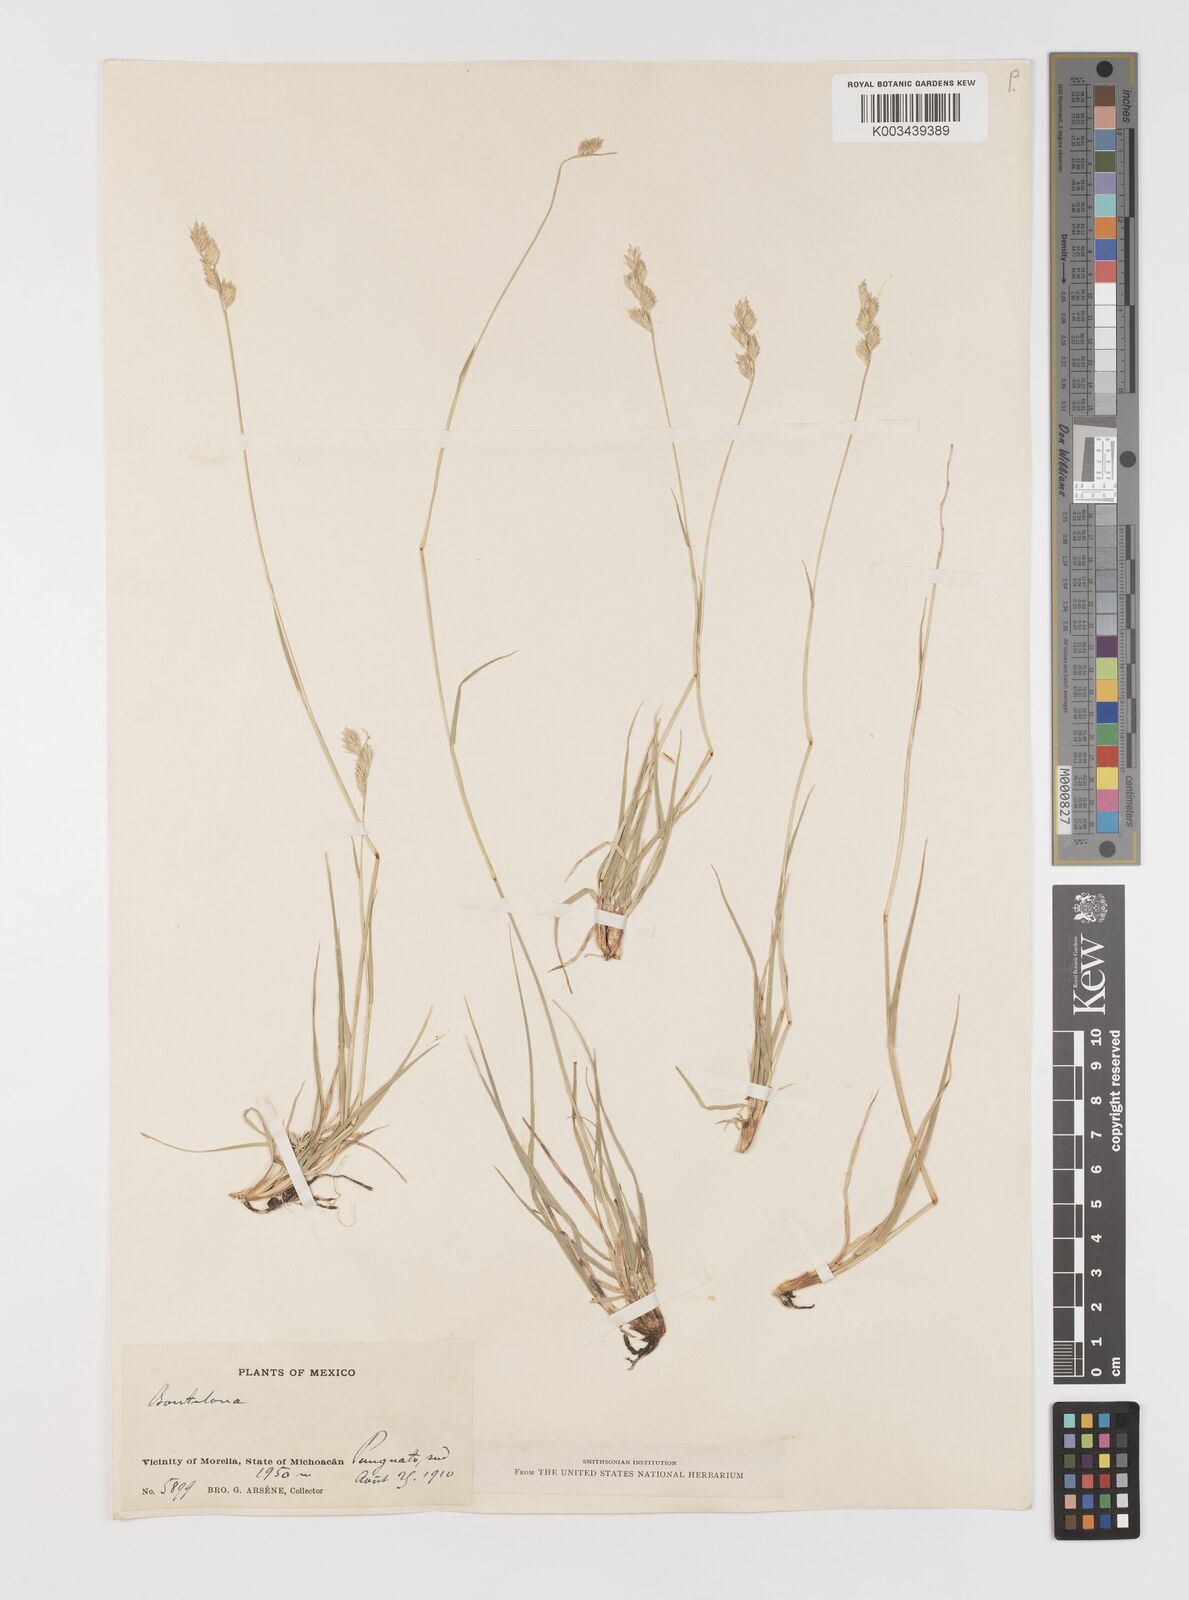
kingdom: Plantae
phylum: Tracheophyta
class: Liliopsida
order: Poales
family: Poaceae
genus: Bouteloua
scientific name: Bouteloua chondrosioides
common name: Sprucetop grama
